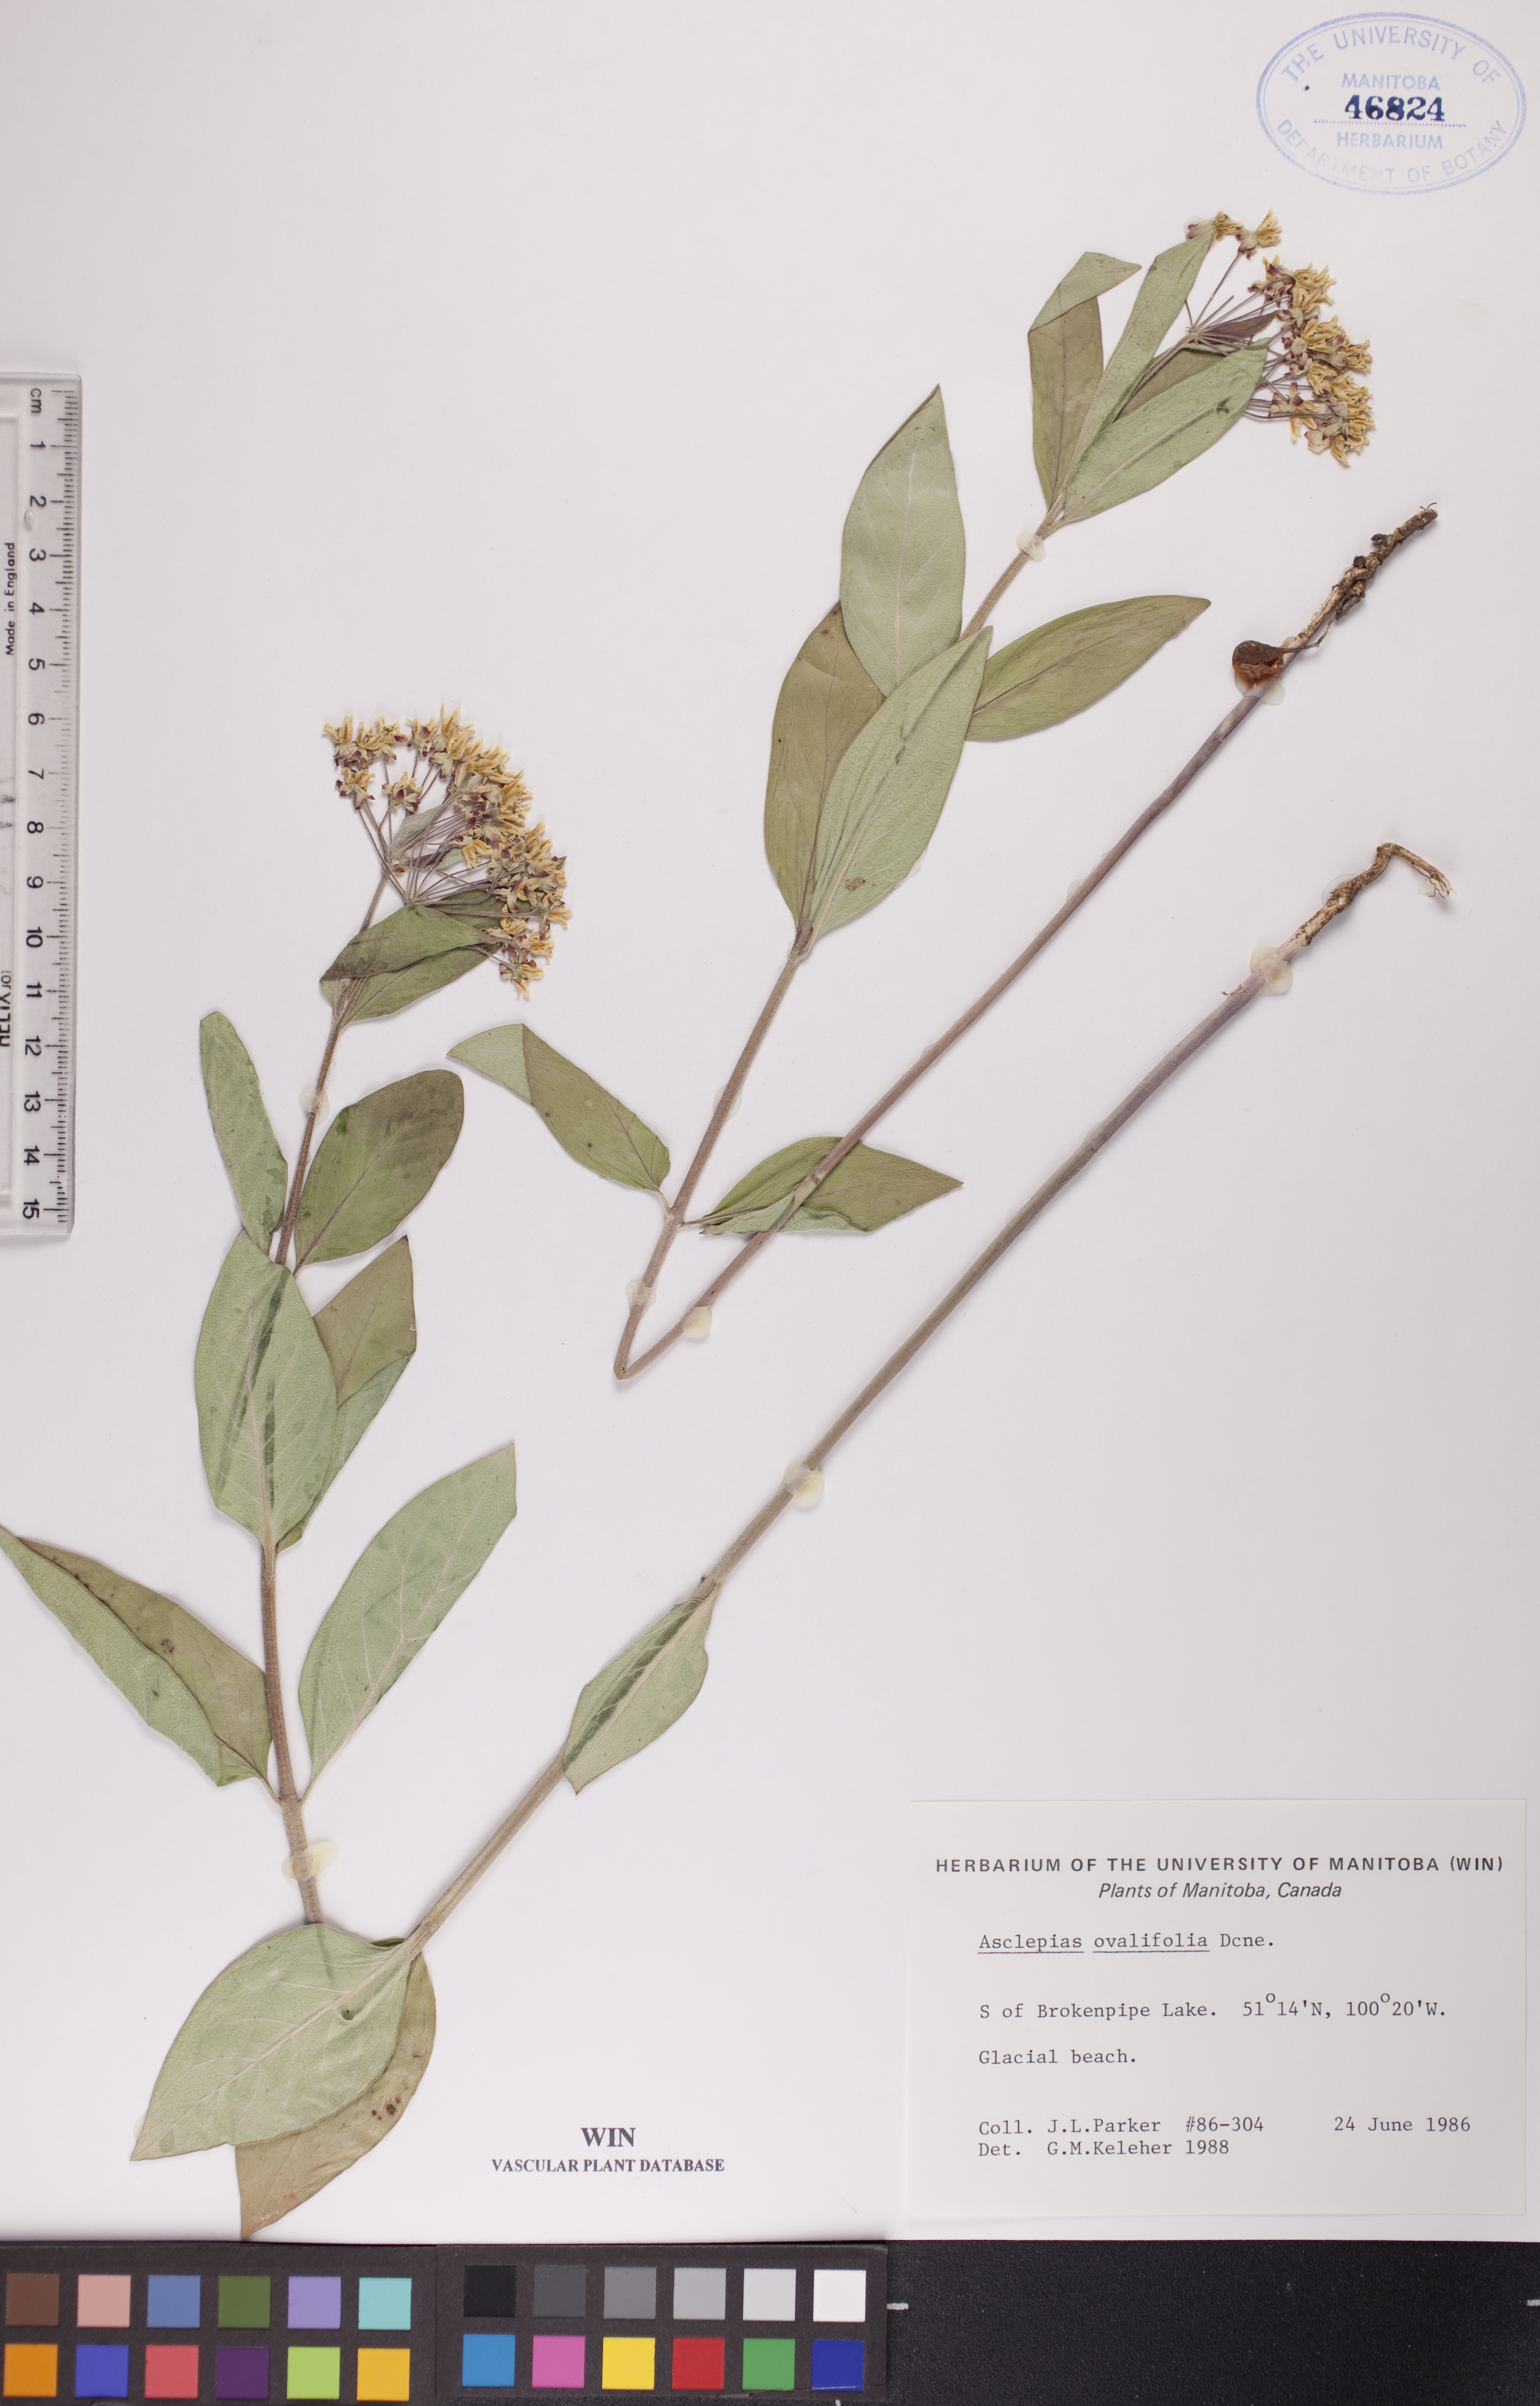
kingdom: Plantae
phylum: Tracheophyta
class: Magnoliopsida
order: Gentianales
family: Apocynaceae
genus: Asclepias
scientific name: Asclepias ovalifolia
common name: Dwarf milkweed
